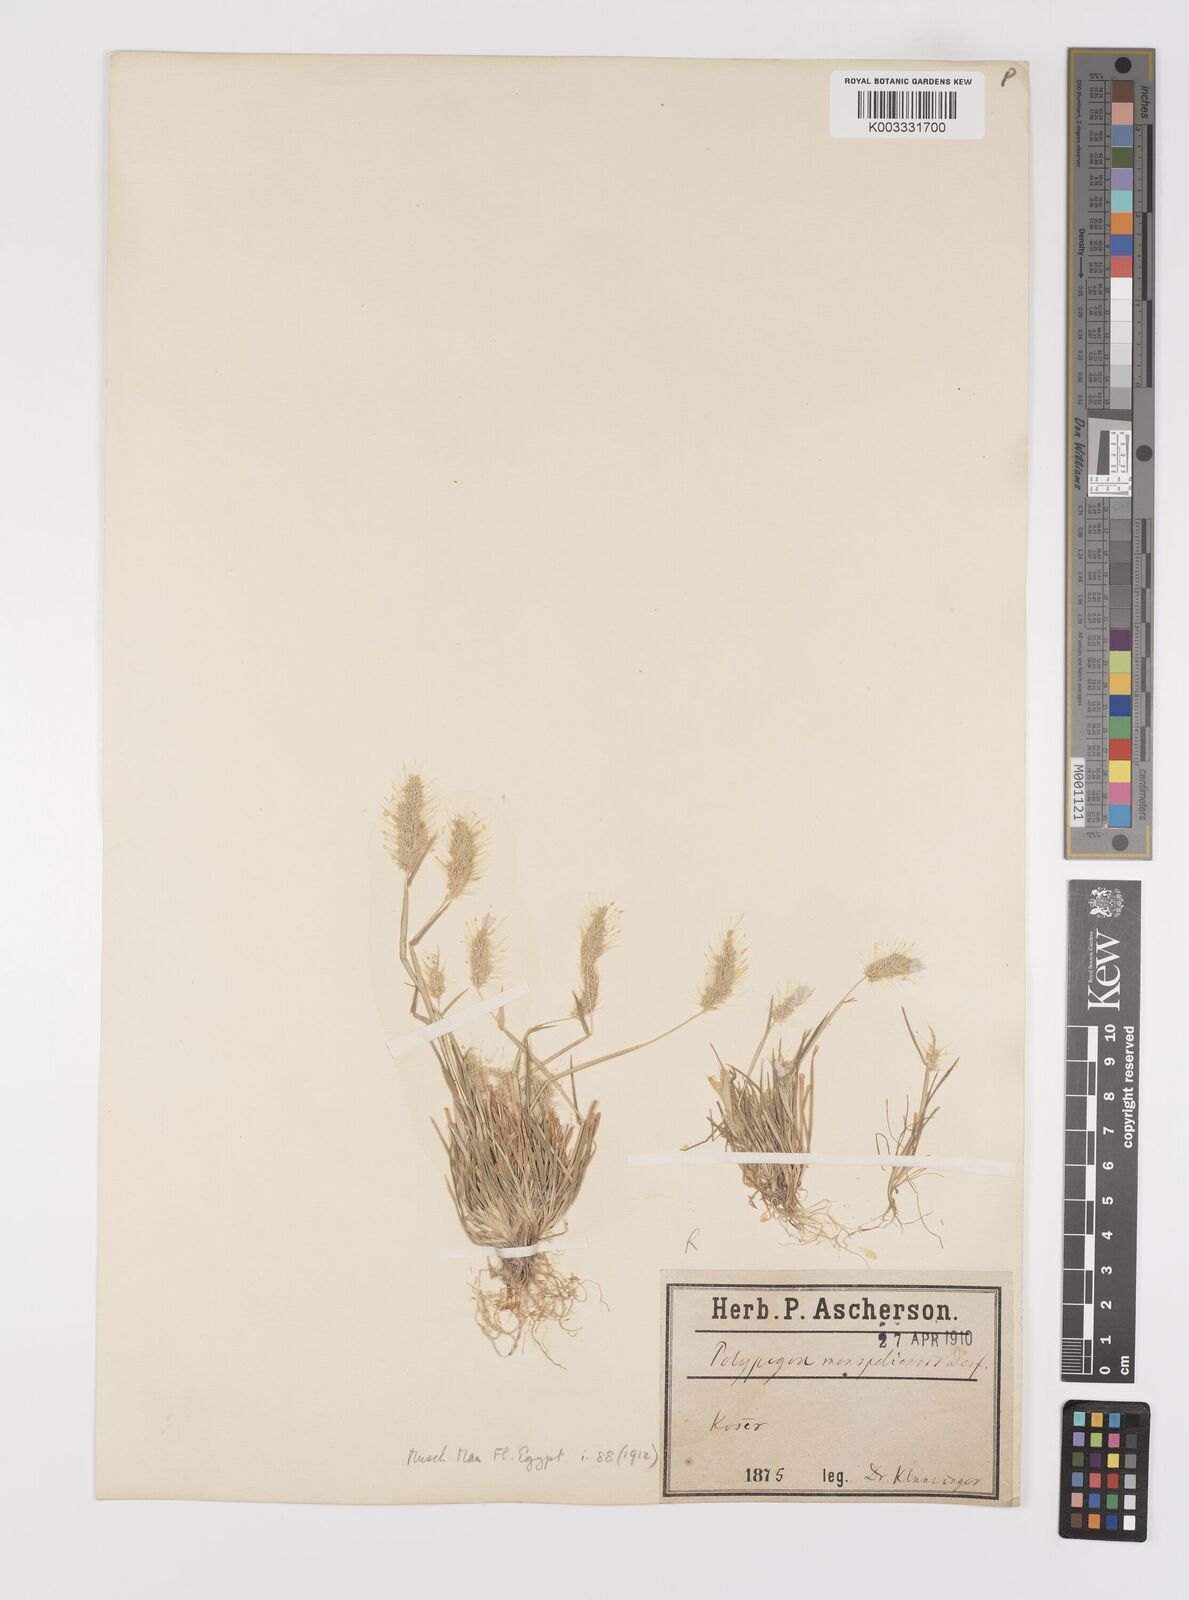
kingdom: Plantae
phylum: Tracheophyta
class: Liliopsida
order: Poales
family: Poaceae
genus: Polypogon
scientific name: Polypogon monspeliensis
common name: Annual rabbitsfoot grass
